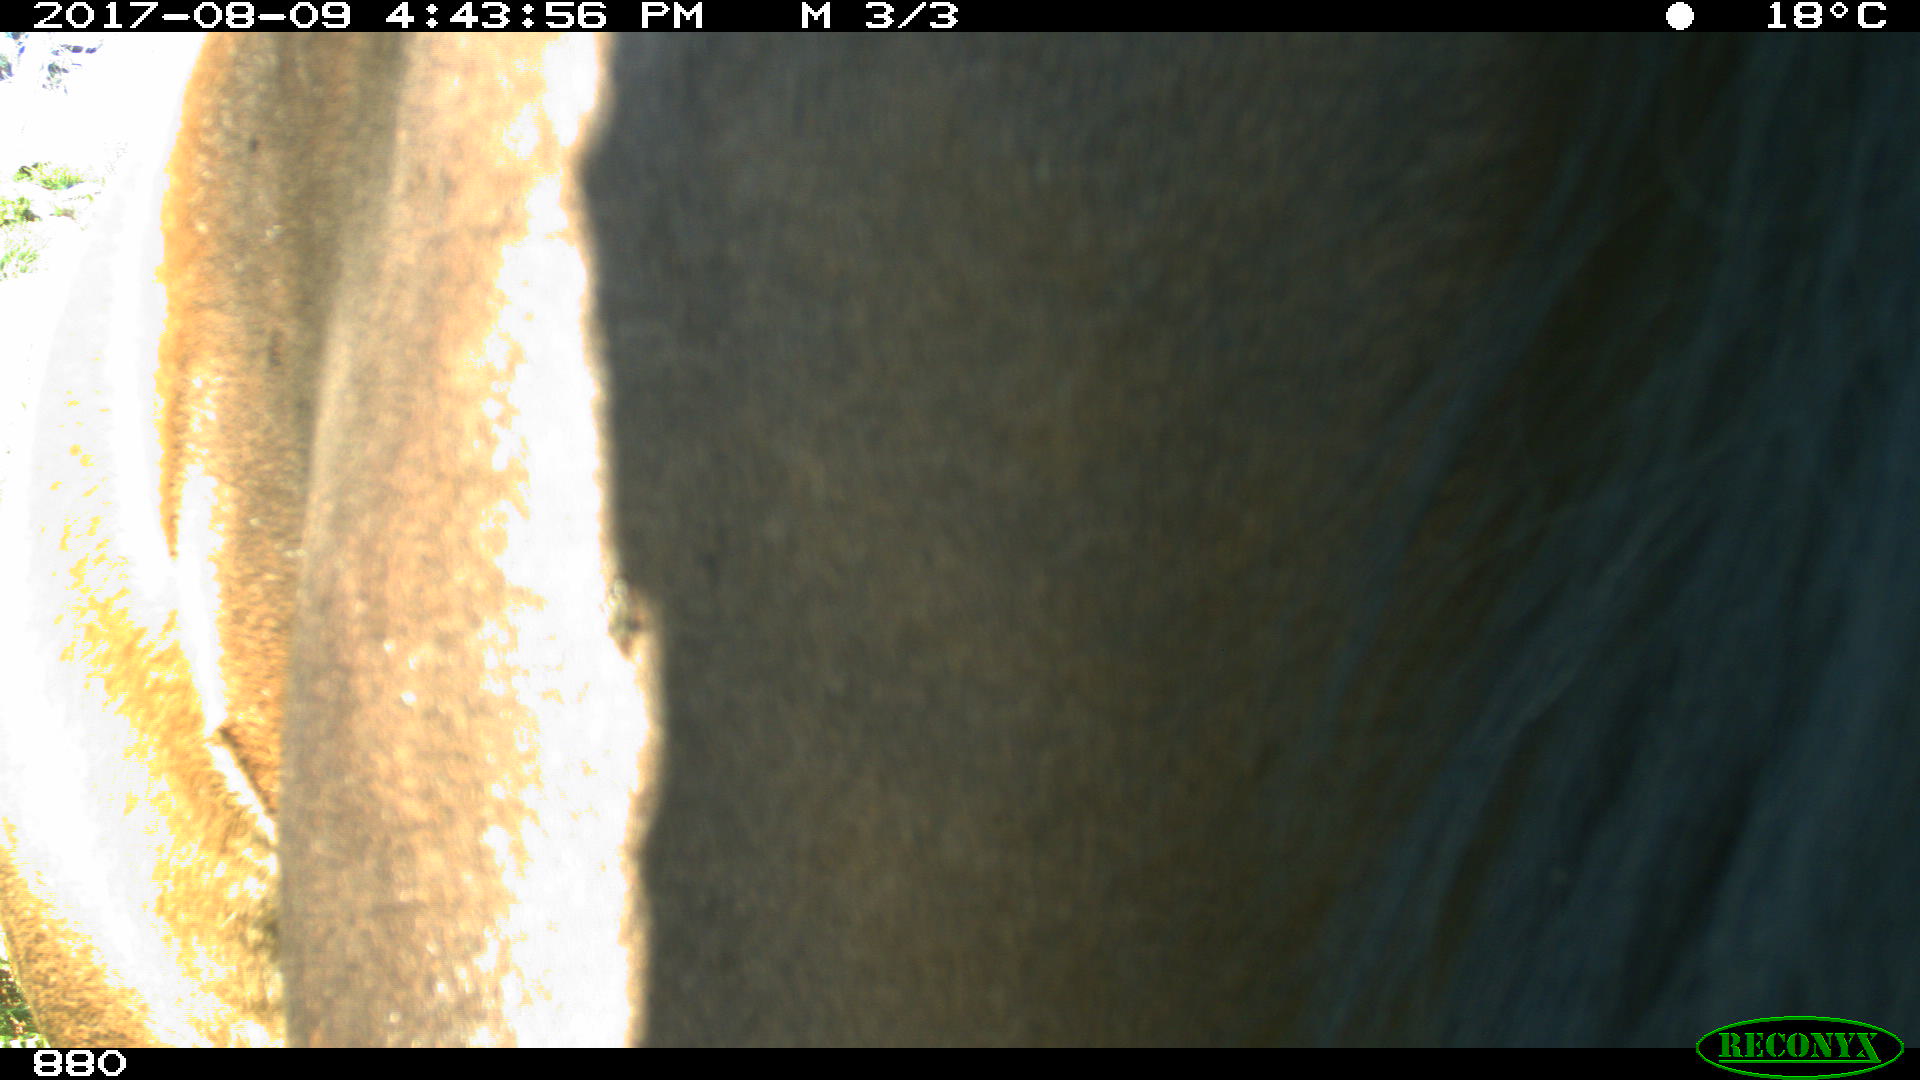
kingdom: Animalia
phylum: Chordata
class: Mammalia
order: Perissodactyla
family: Equidae
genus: Equus
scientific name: Equus caballus
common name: Horse
